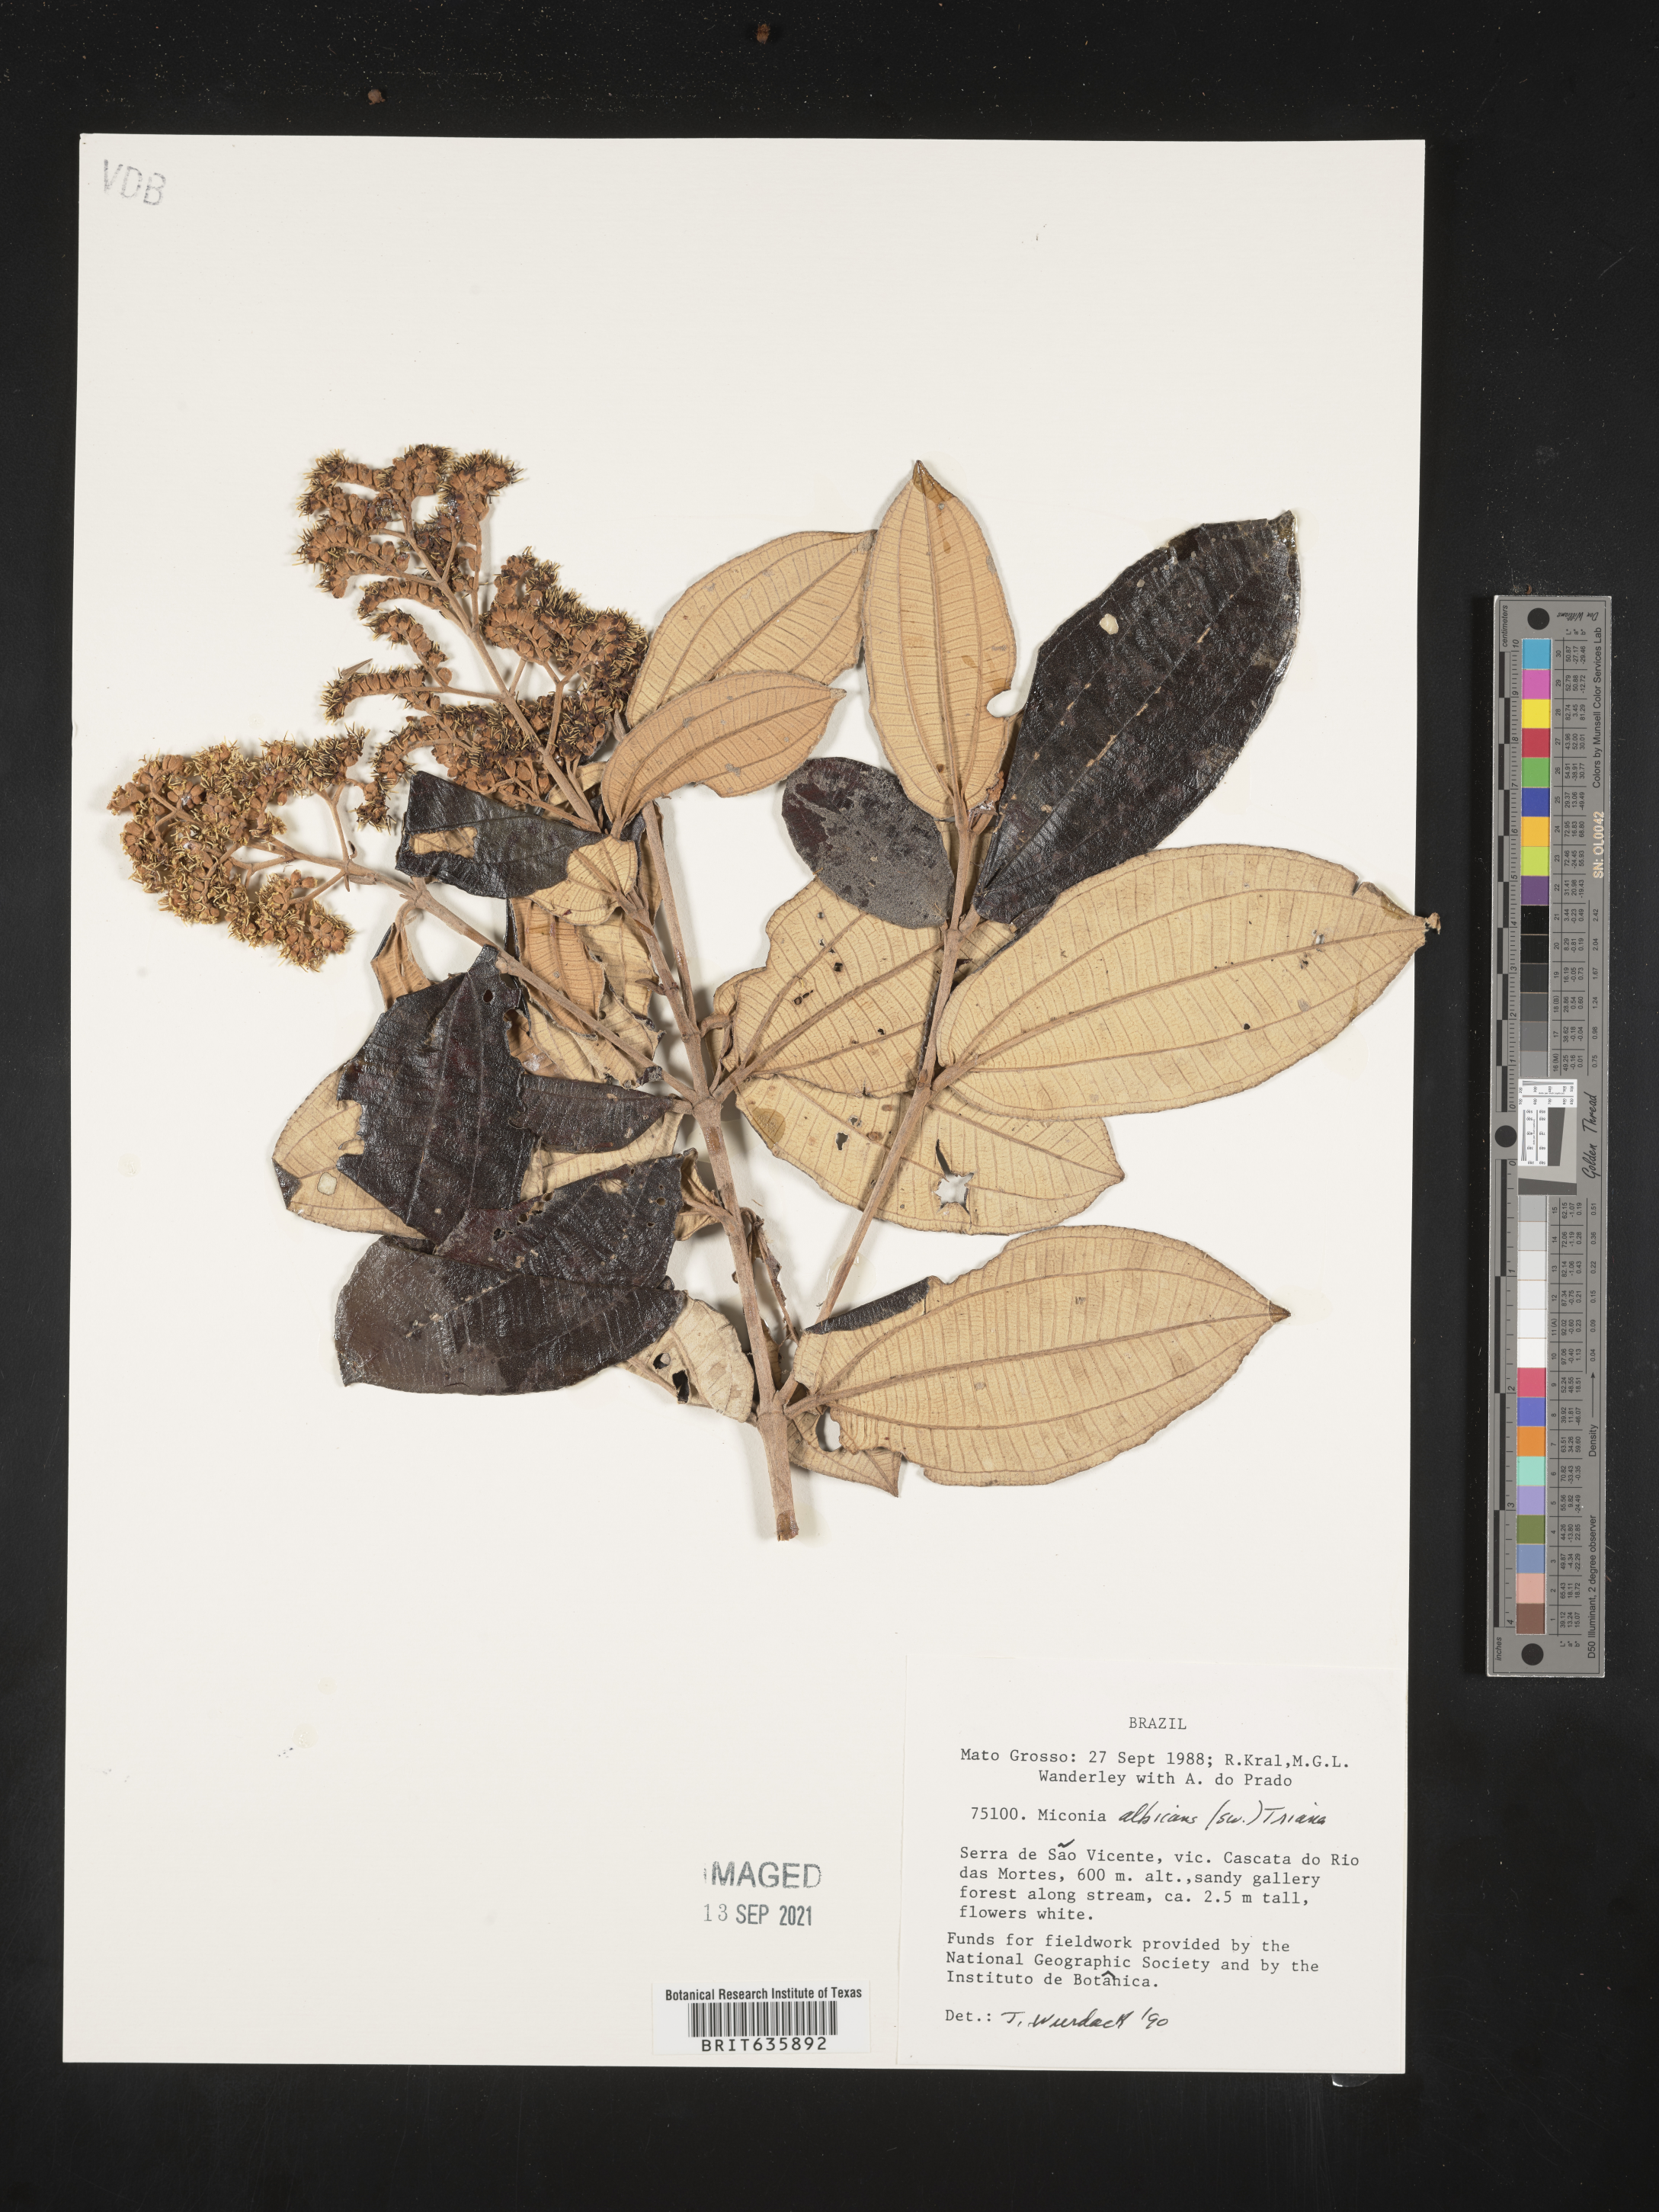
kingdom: Plantae
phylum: Tracheophyta
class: Magnoliopsida
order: Myrtales
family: Melastomataceae
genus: Miconia
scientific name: Miconia
